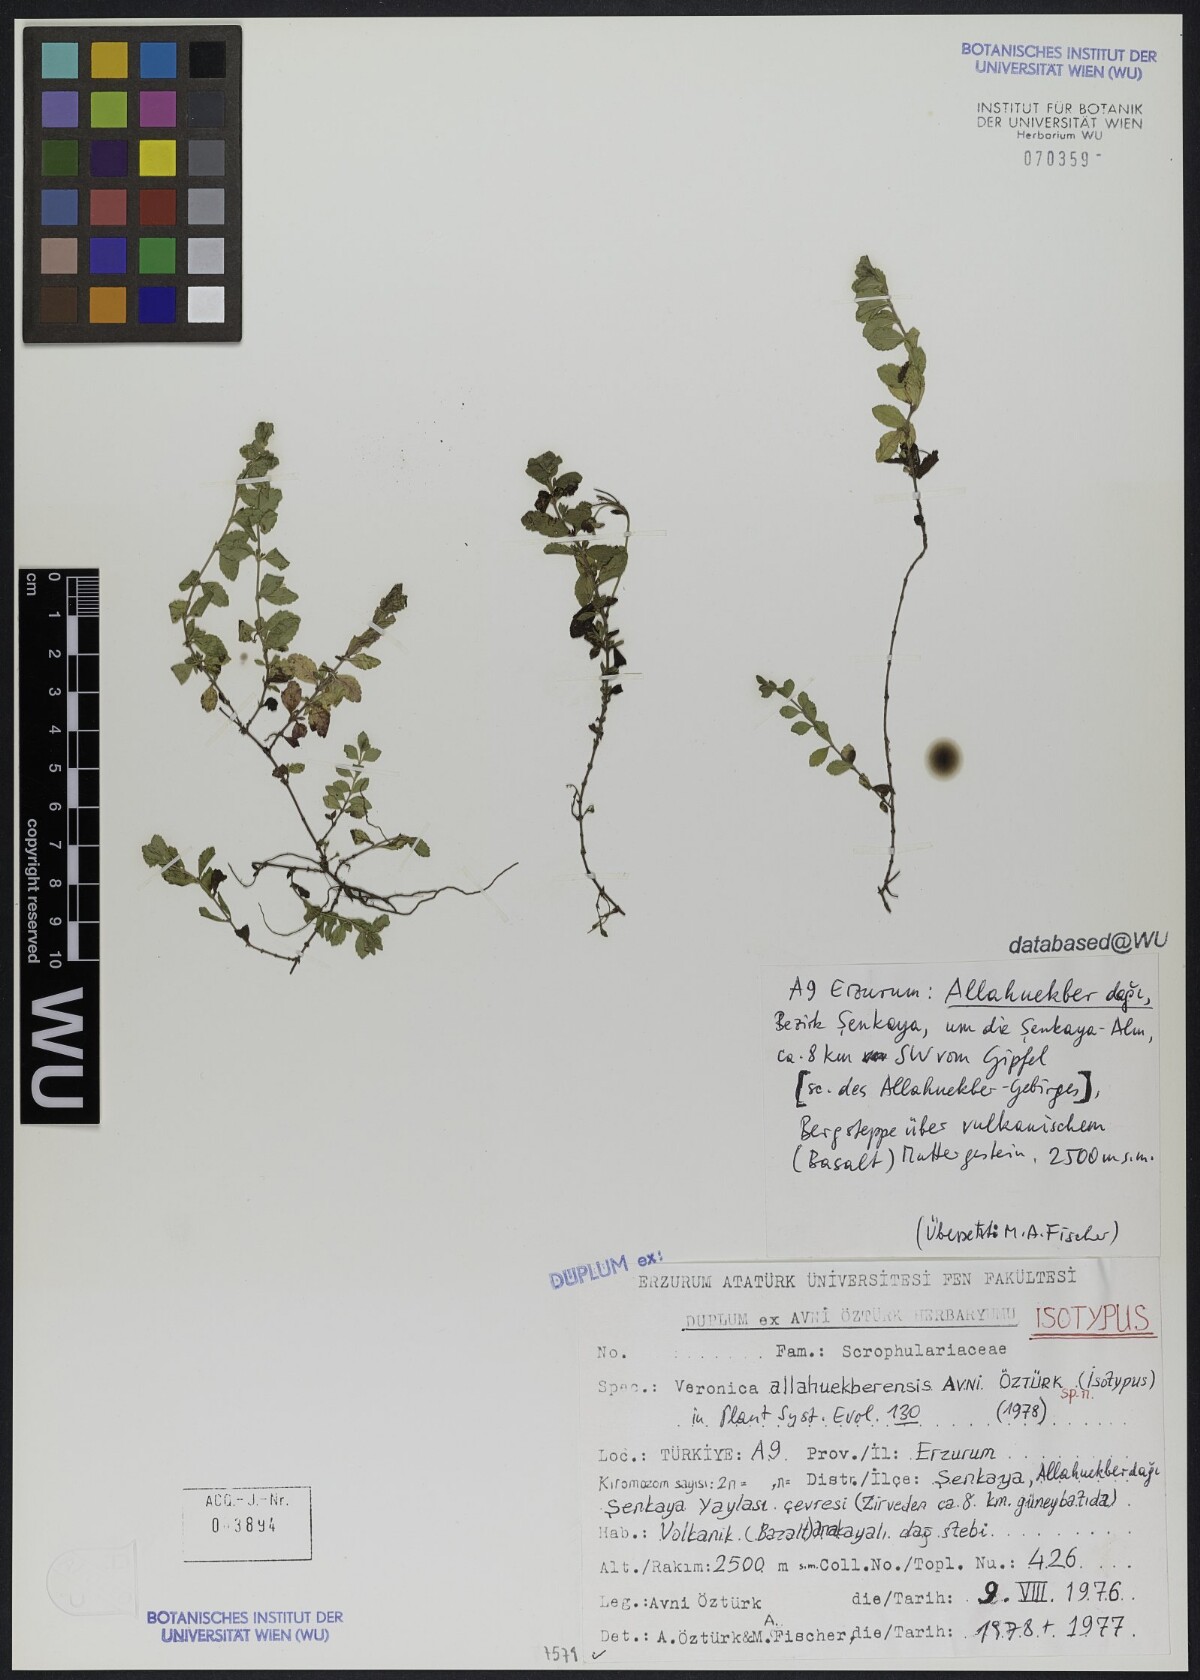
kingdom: Plantae
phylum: Tracheophyta
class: Magnoliopsida
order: Lamiales
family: Plantaginaceae
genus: Veronica
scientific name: Veronica allahuekberensis
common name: Allahuekberian speedwell
